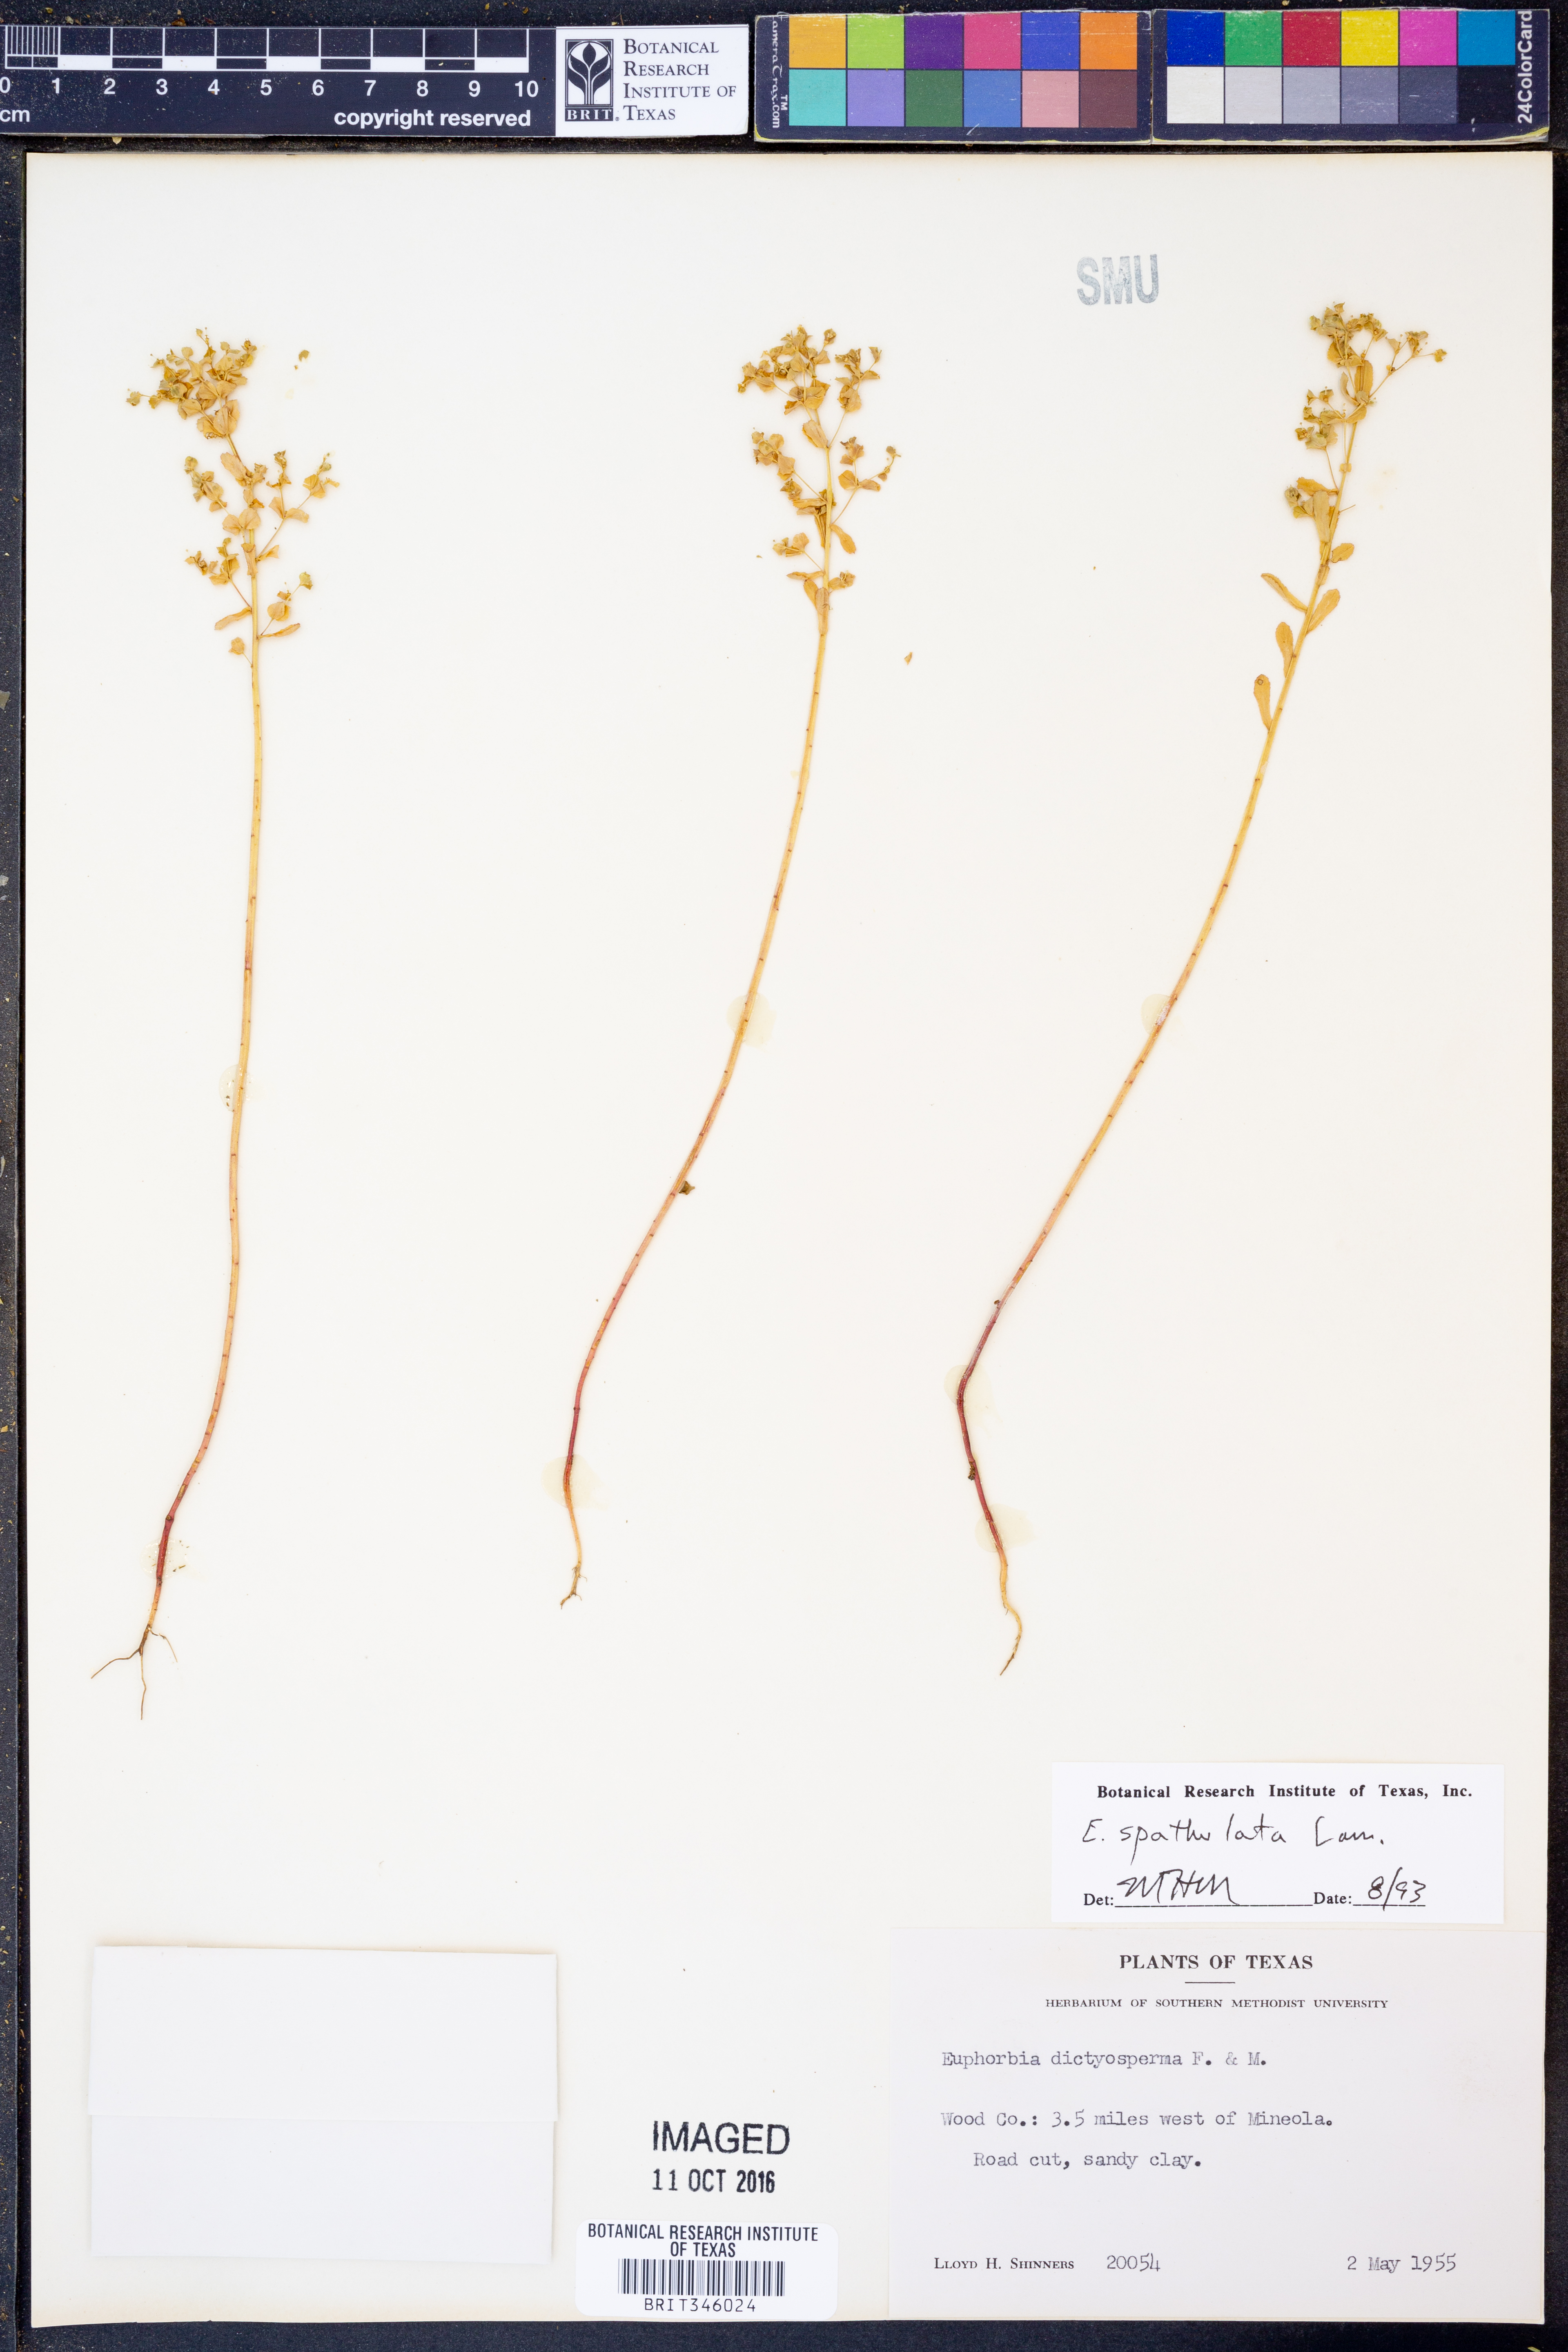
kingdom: Plantae
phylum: Tracheophyta
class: Magnoliopsida
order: Malpighiales
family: Euphorbiaceae
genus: Euphorbia
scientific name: Euphorbia spathulata
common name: Blunt spurge
